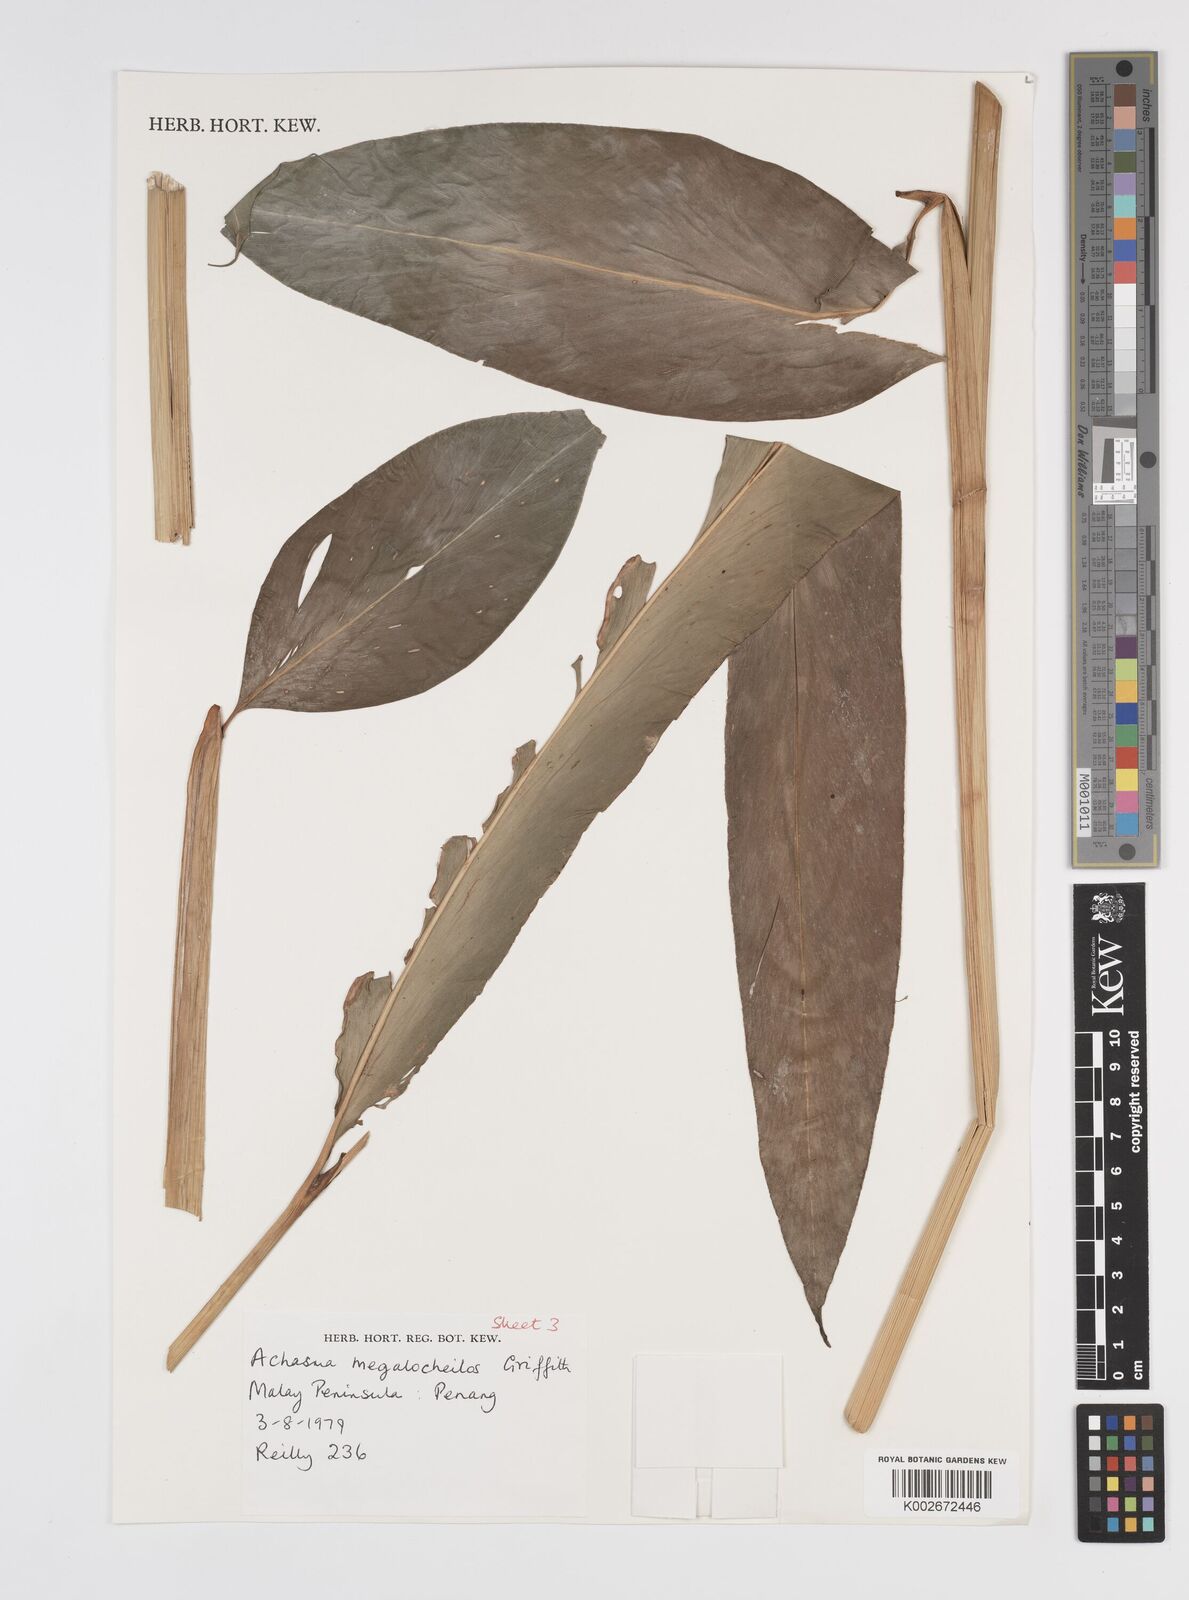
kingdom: Plantae
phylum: Tracheophyta
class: Liliopsida
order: Zingiberales
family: Zingiberaceae
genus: Etlingera
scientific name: Etlingera littoralis
